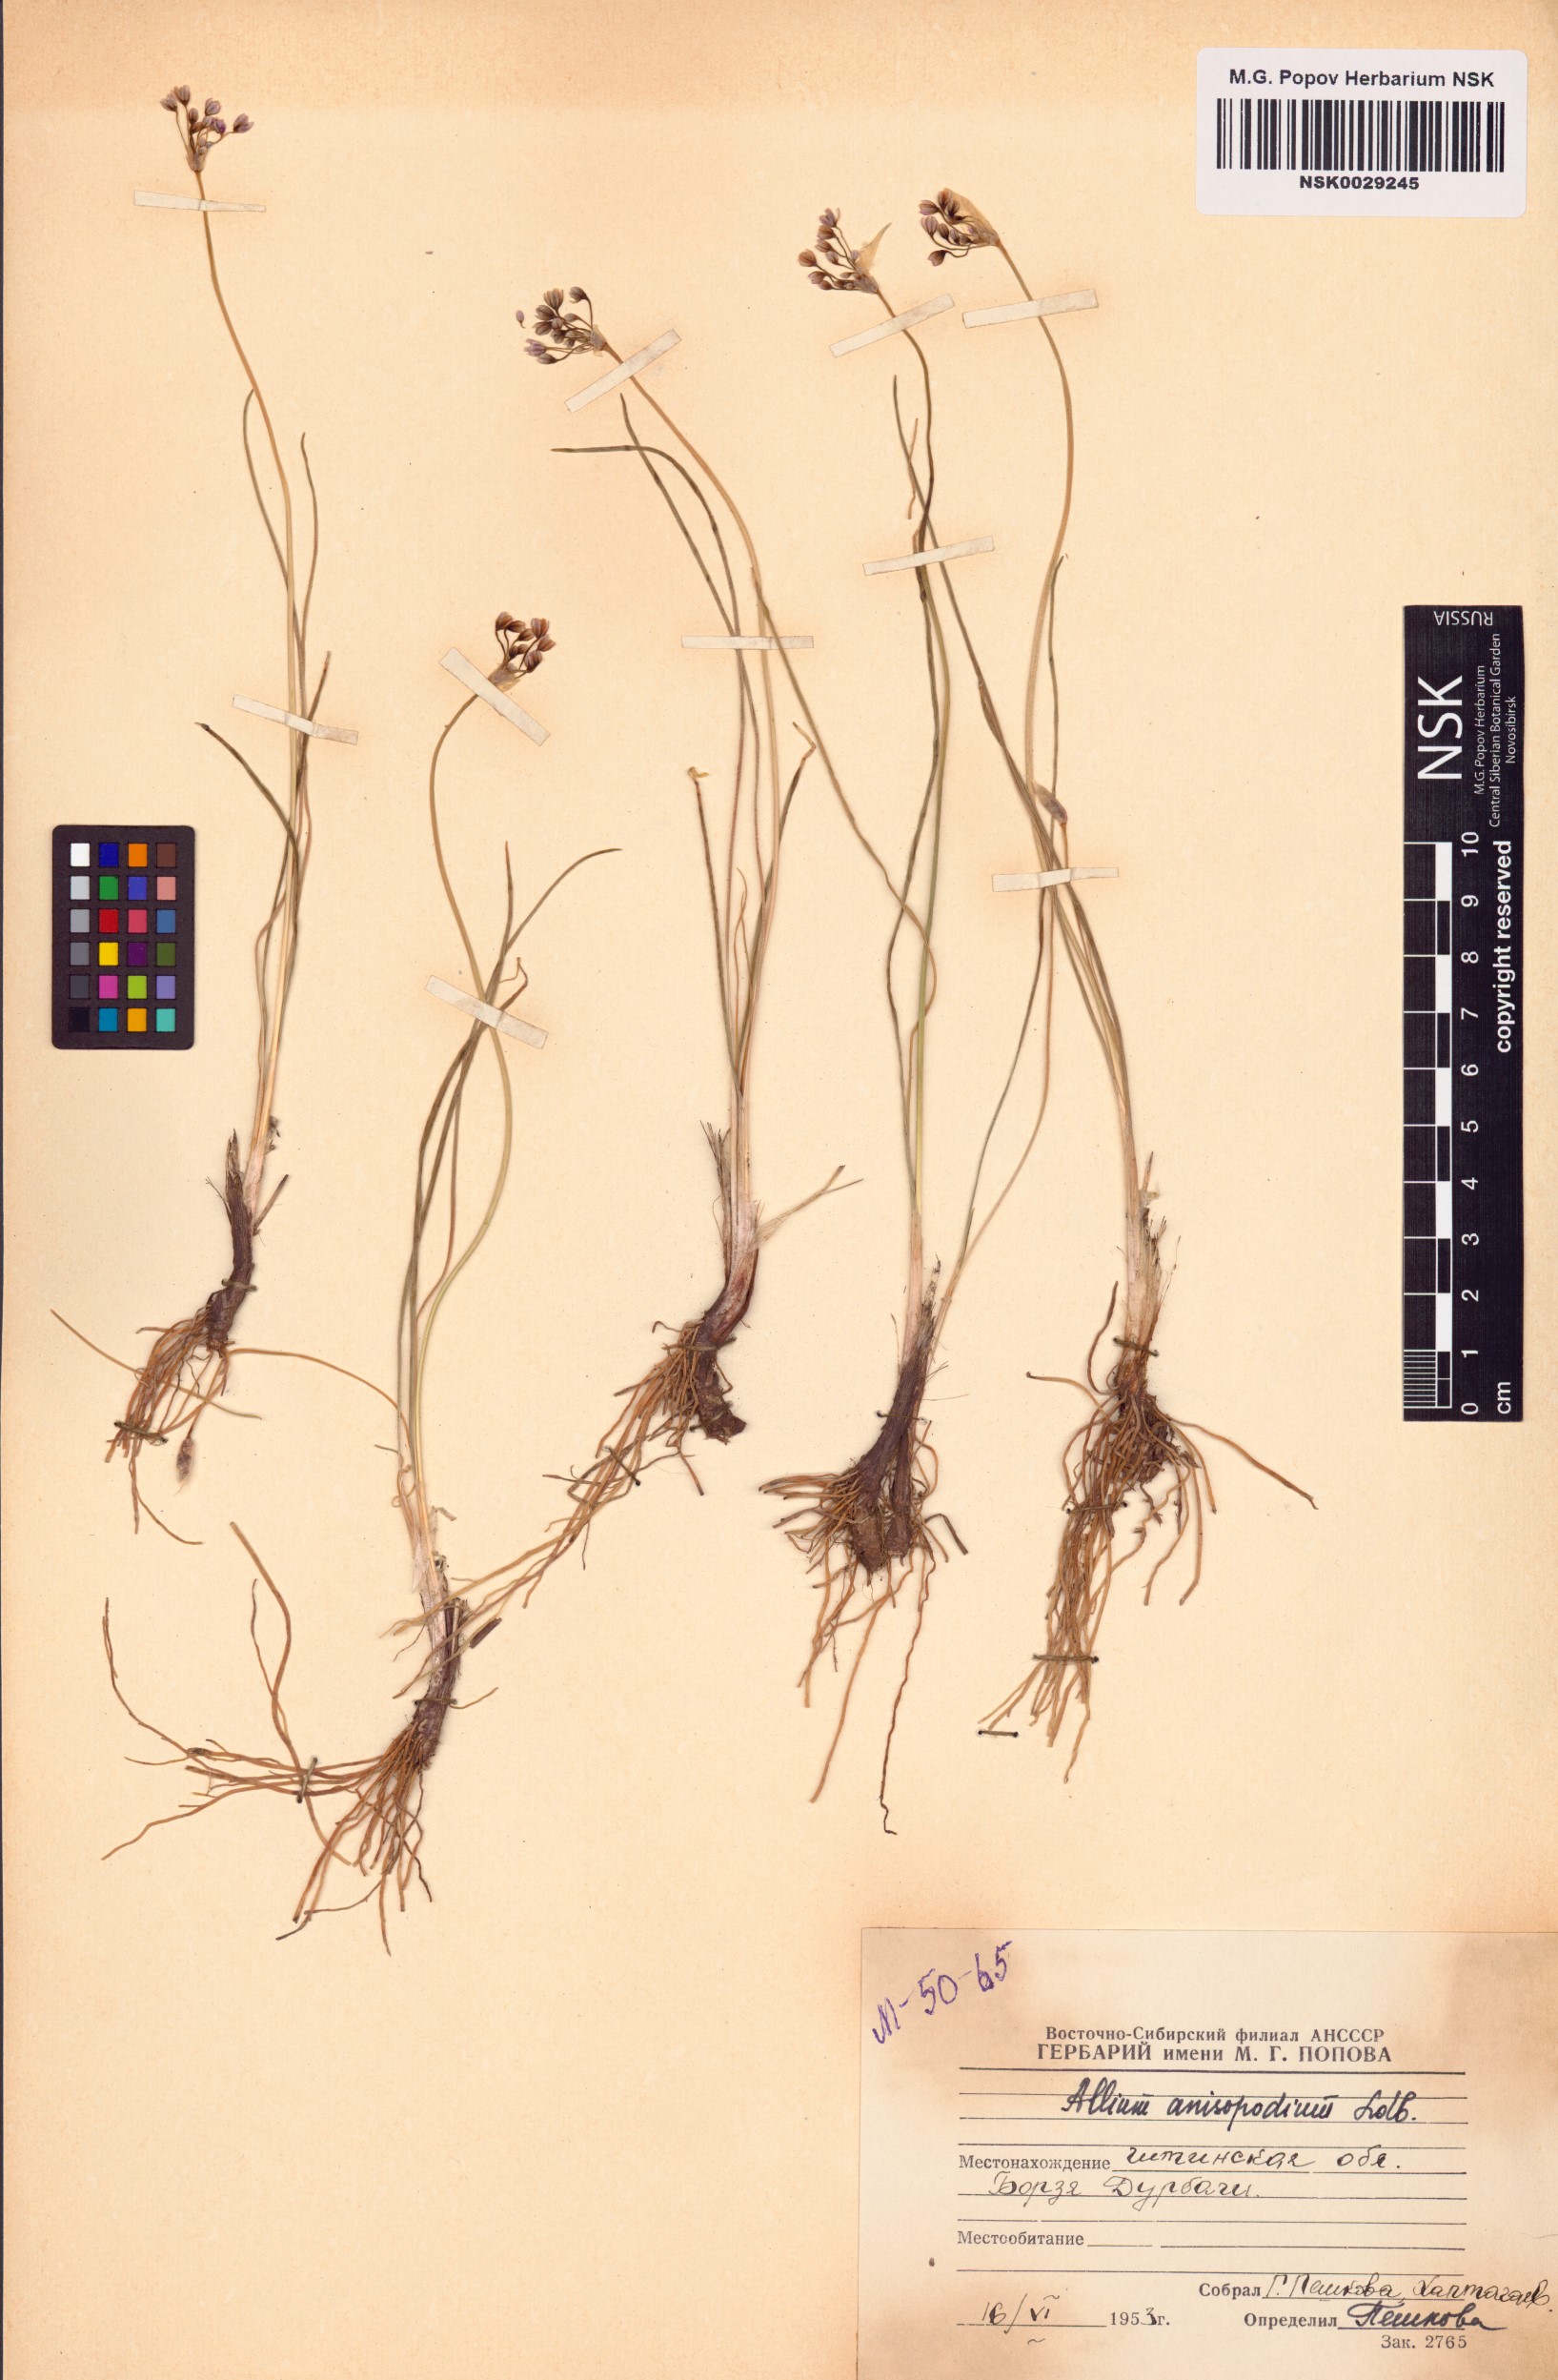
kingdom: Plantae
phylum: Tracheophyta
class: Liliopsida
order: Asparagales
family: Amaryllidaceae
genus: Allium
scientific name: Allium anisopodium
